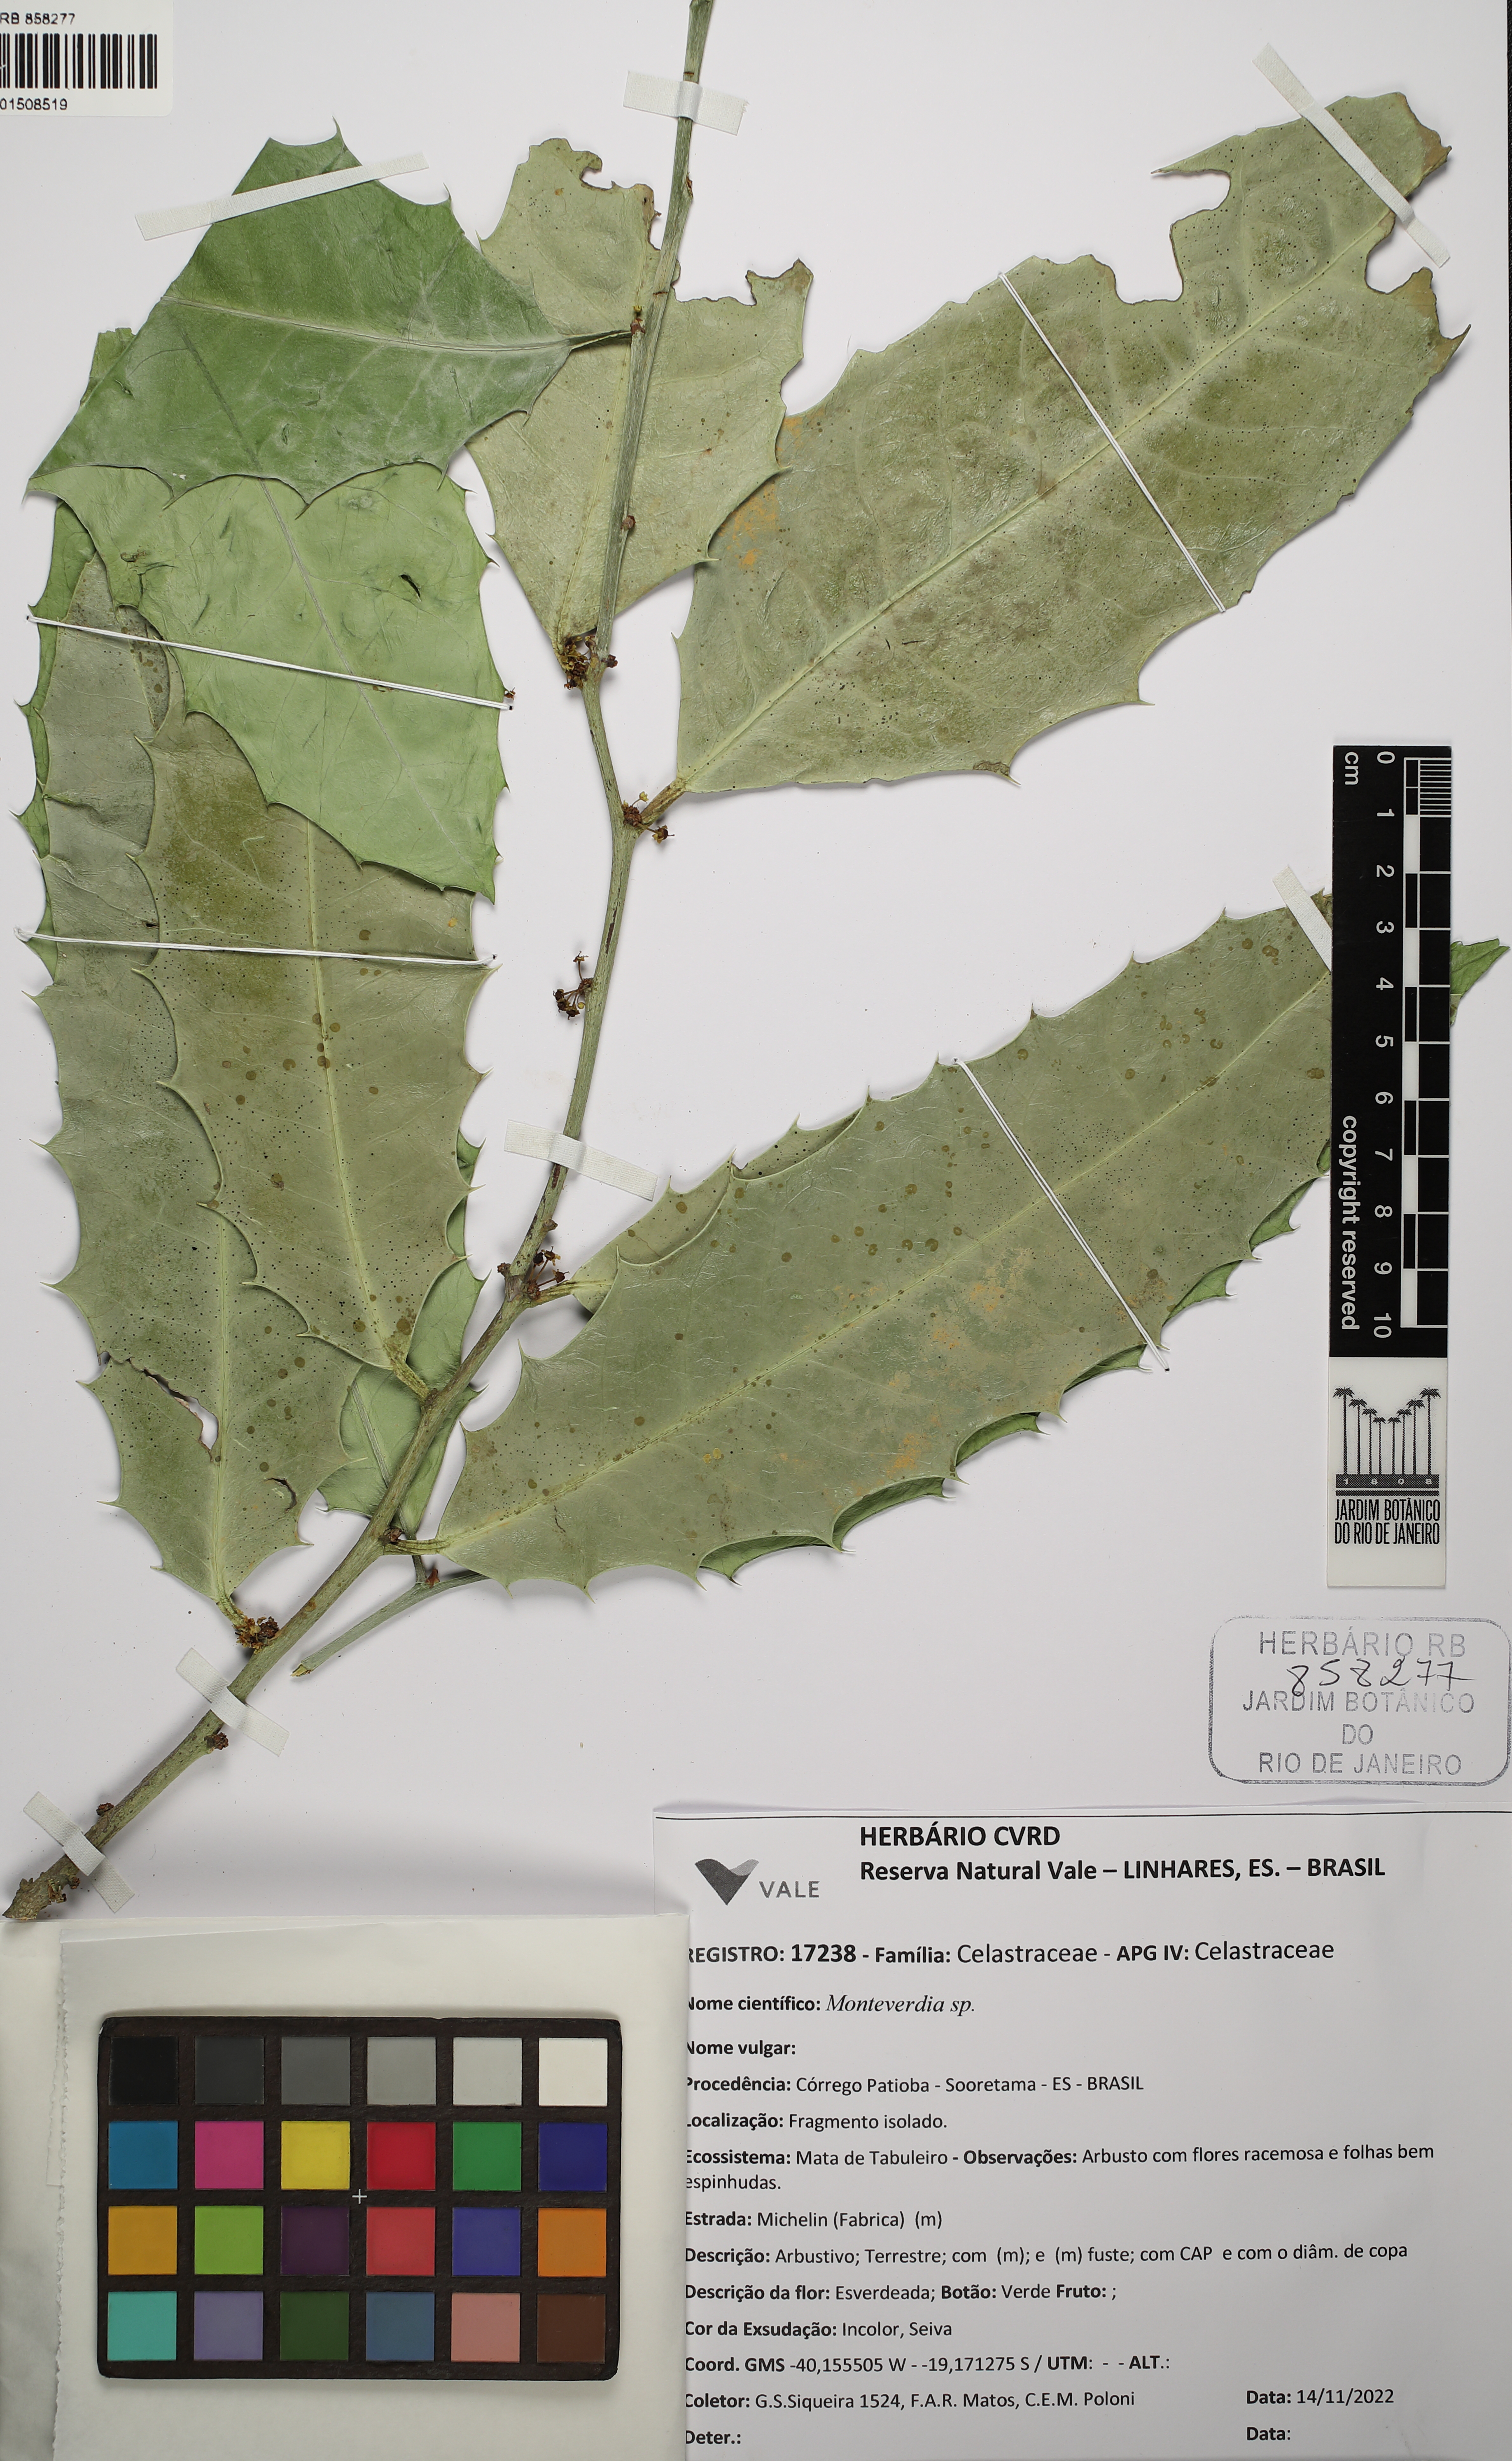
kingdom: Plantae
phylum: Tracheophyta
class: Magnoliopsida
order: Celastrales
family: Celastraceae
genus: Monteverdia
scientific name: Monteverdia
